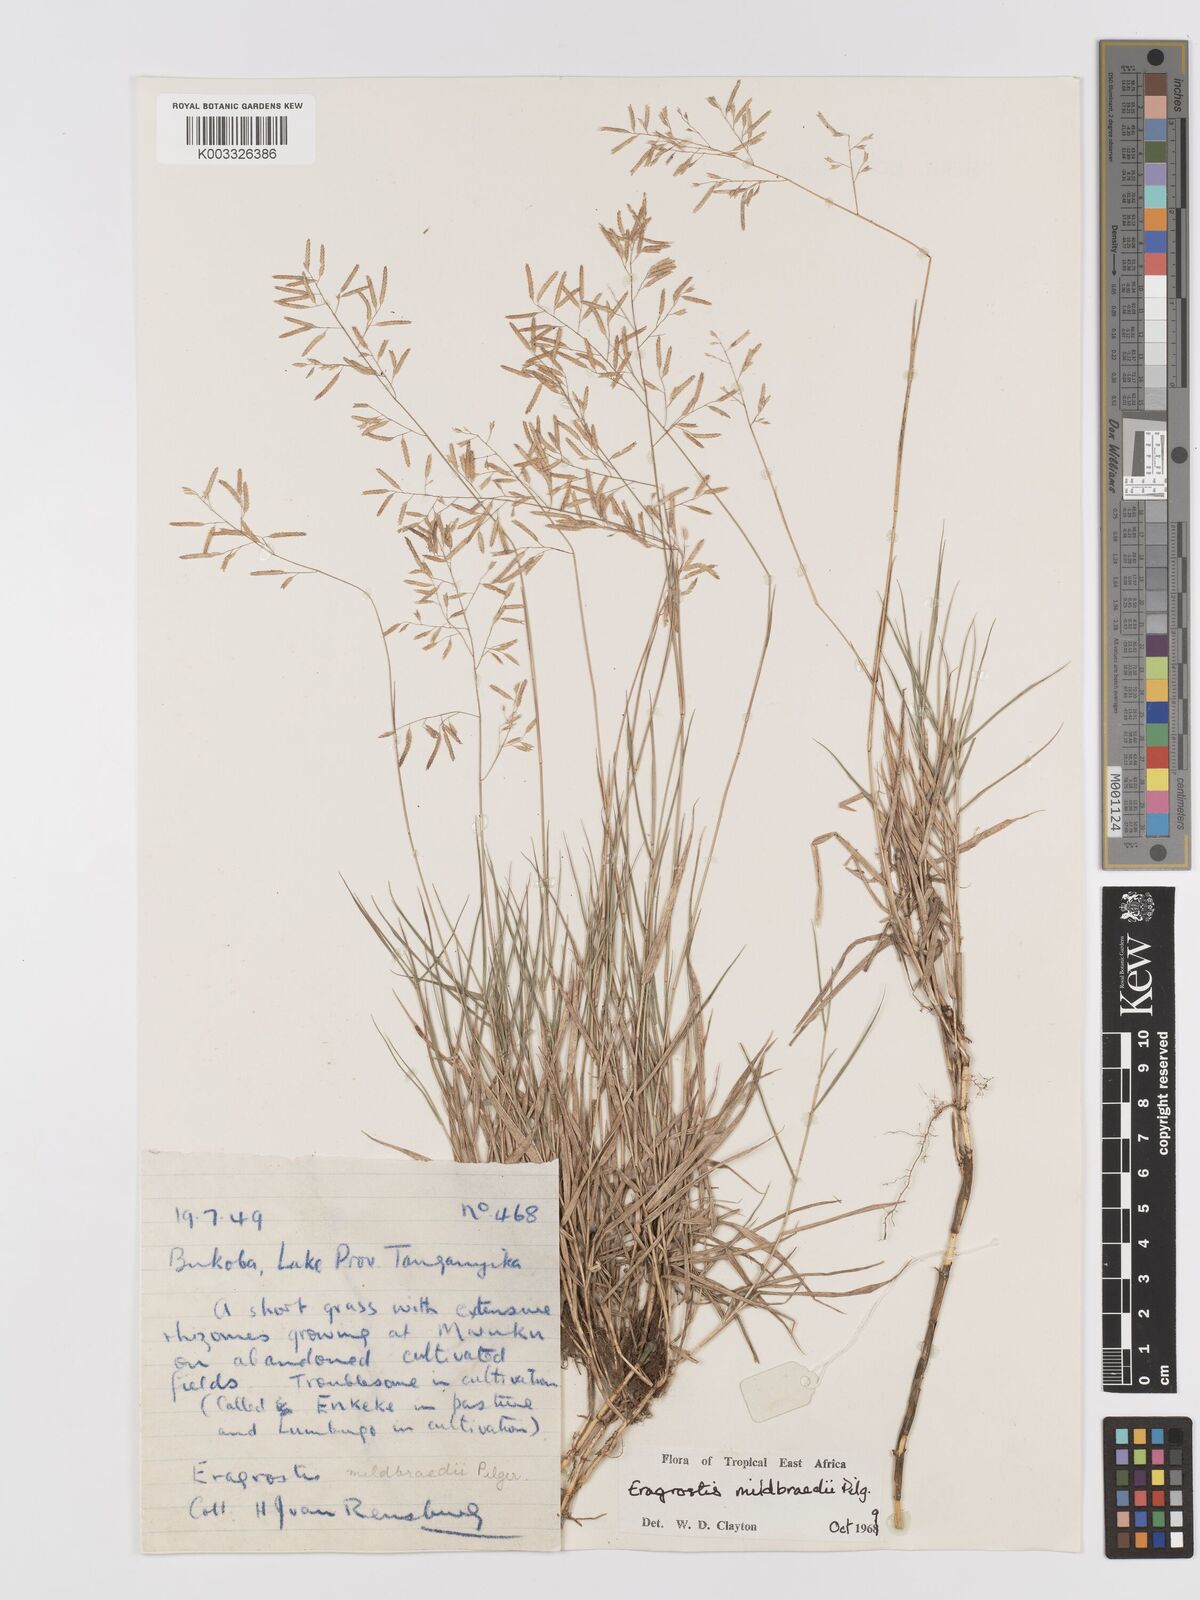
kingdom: Plantae
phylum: Tracheophyta
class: Liliopsida
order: Poales
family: Poaceae
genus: Eragrostis
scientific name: Eragrostis mildbraedii
